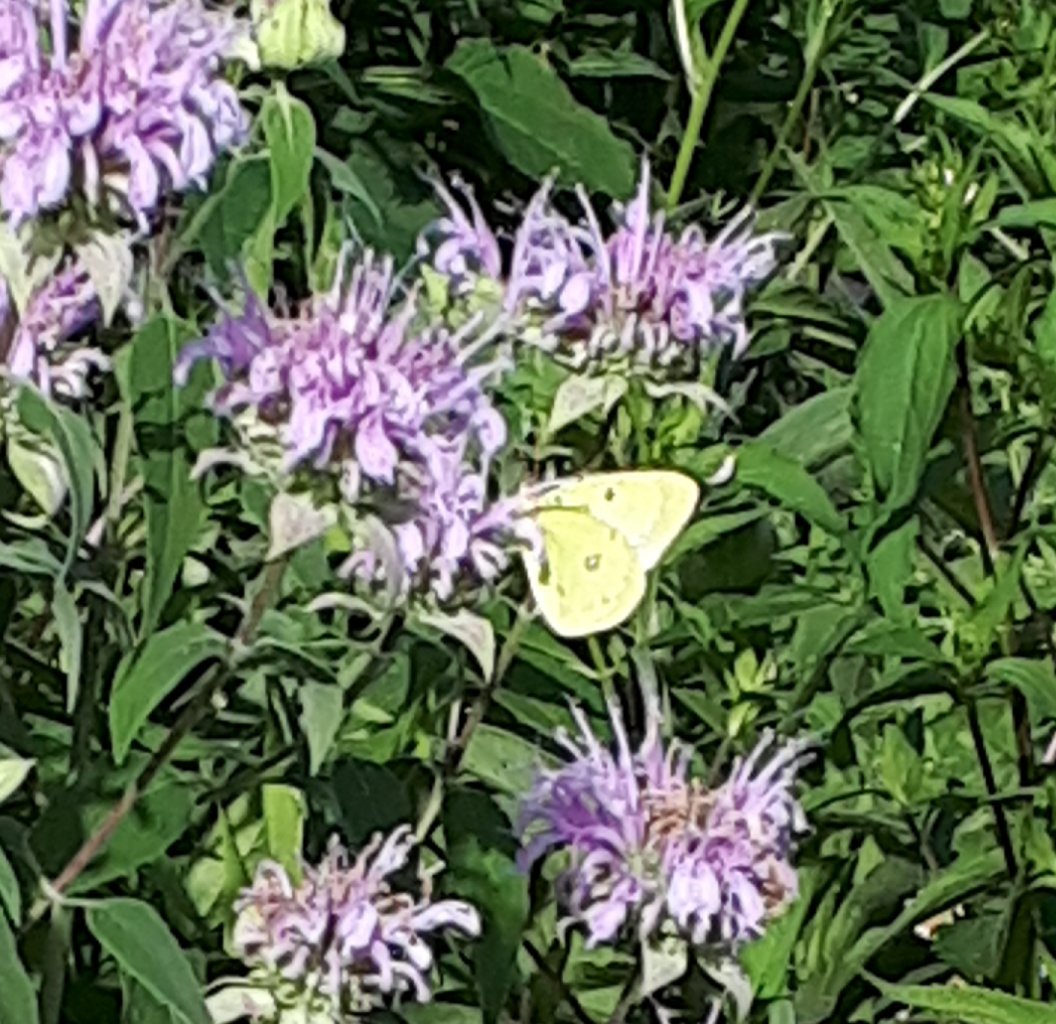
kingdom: Animalia
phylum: Arthropoda
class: Insecta
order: Lepidoptera
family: Pieridae
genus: Colias
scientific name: Colias philodice
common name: Clouded Sulphur
